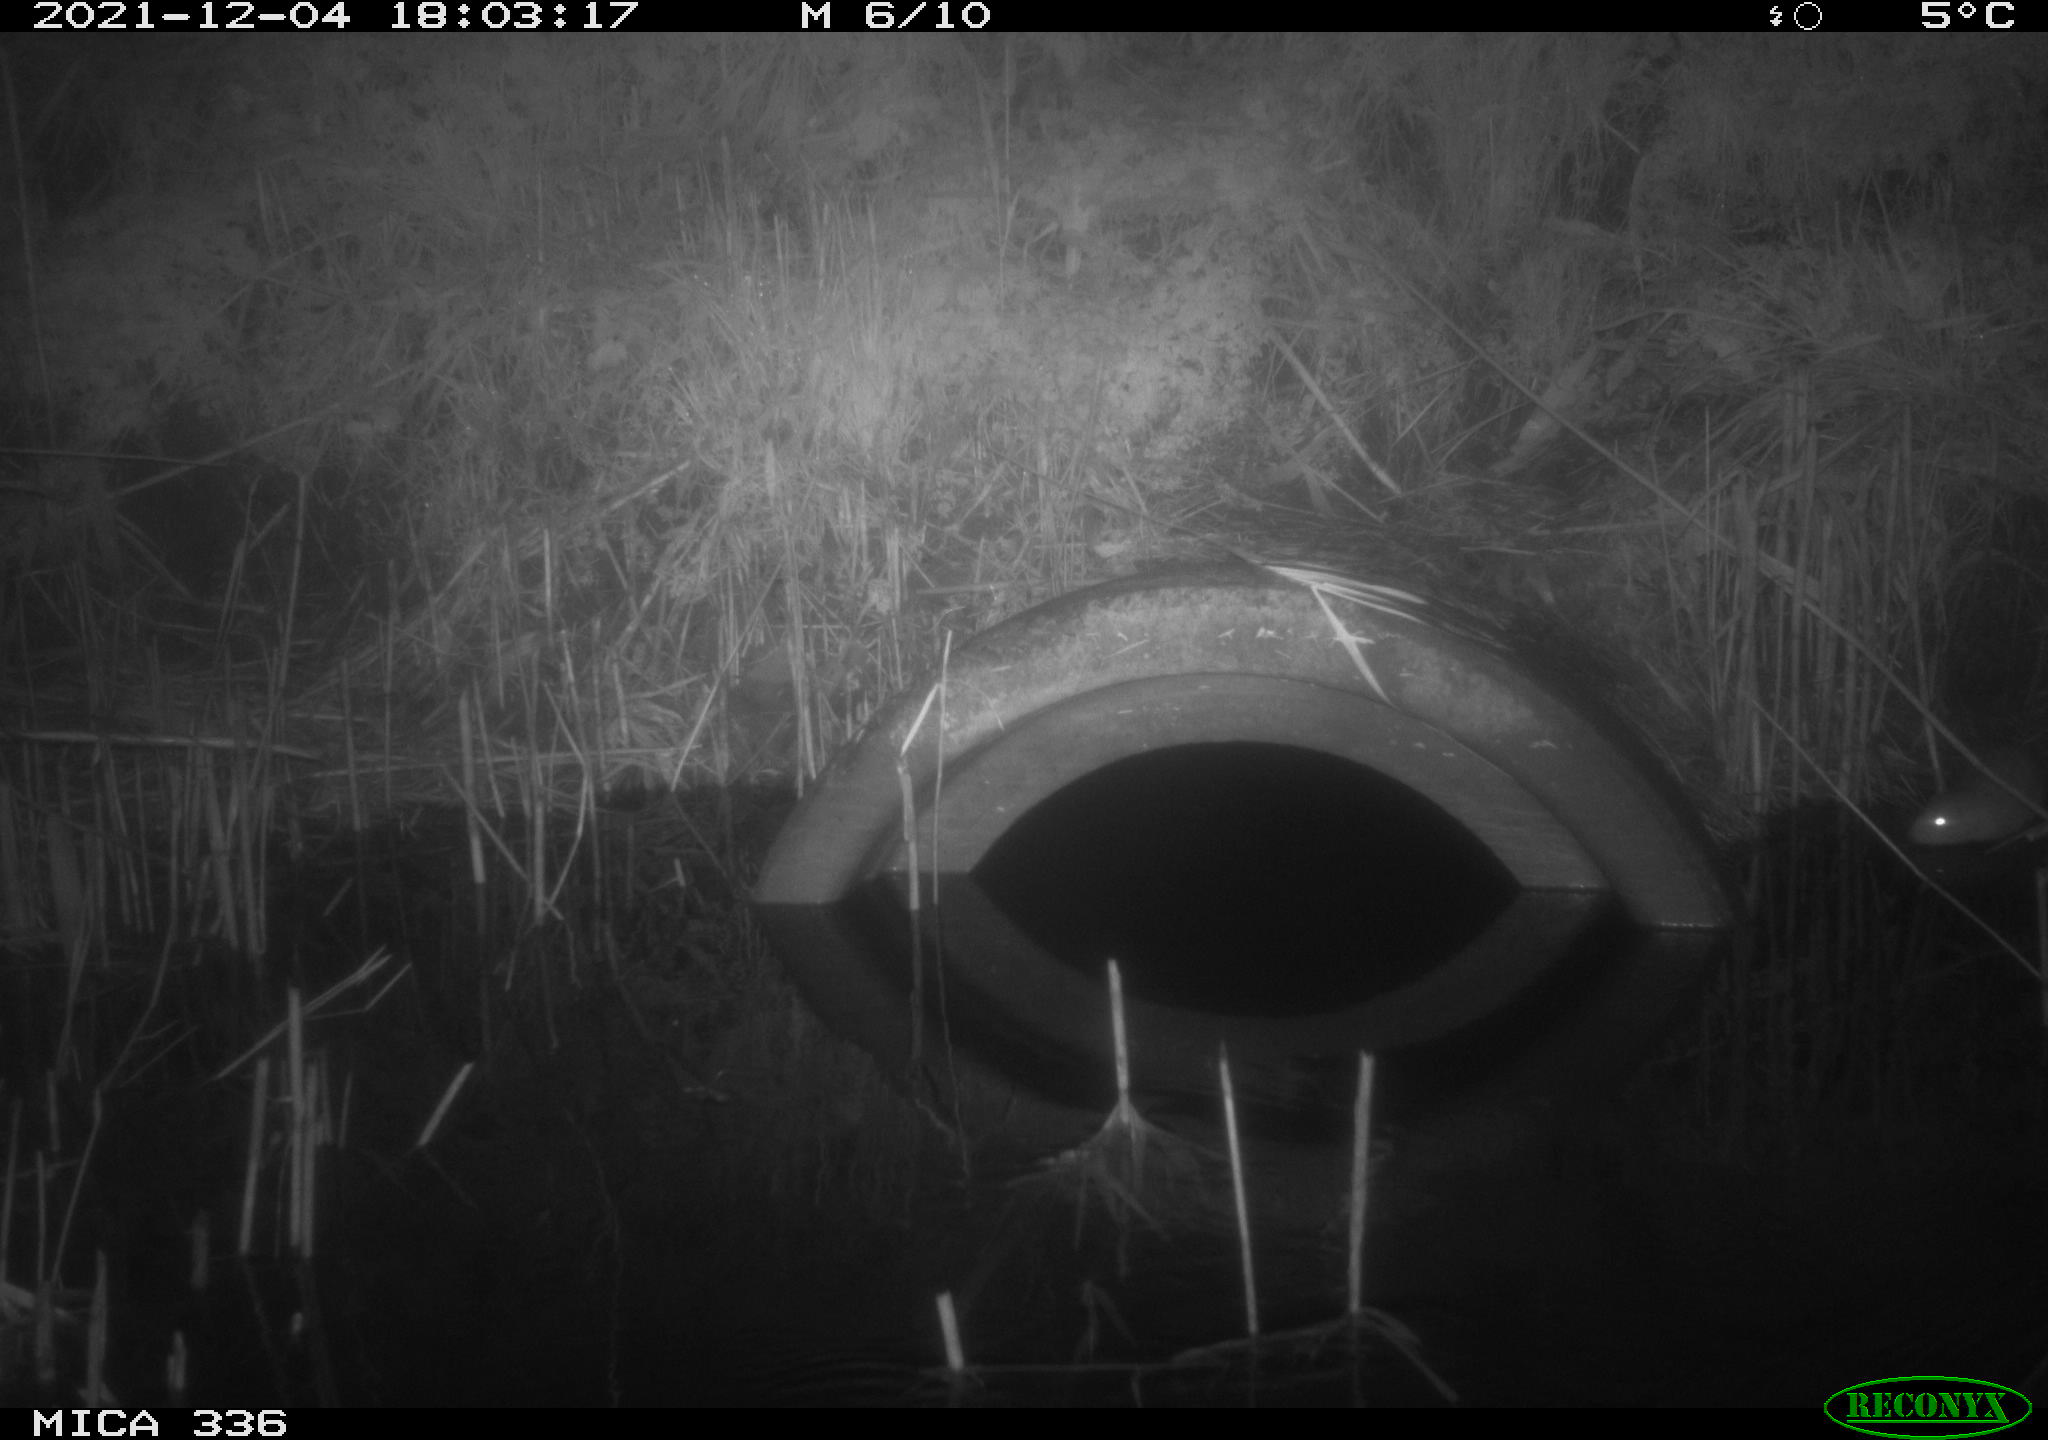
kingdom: Animalia
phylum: Chordata
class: Mammalia
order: Rodentia
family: Muridae
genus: Rattus
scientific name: Rattus norvegicus
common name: Brown rat
